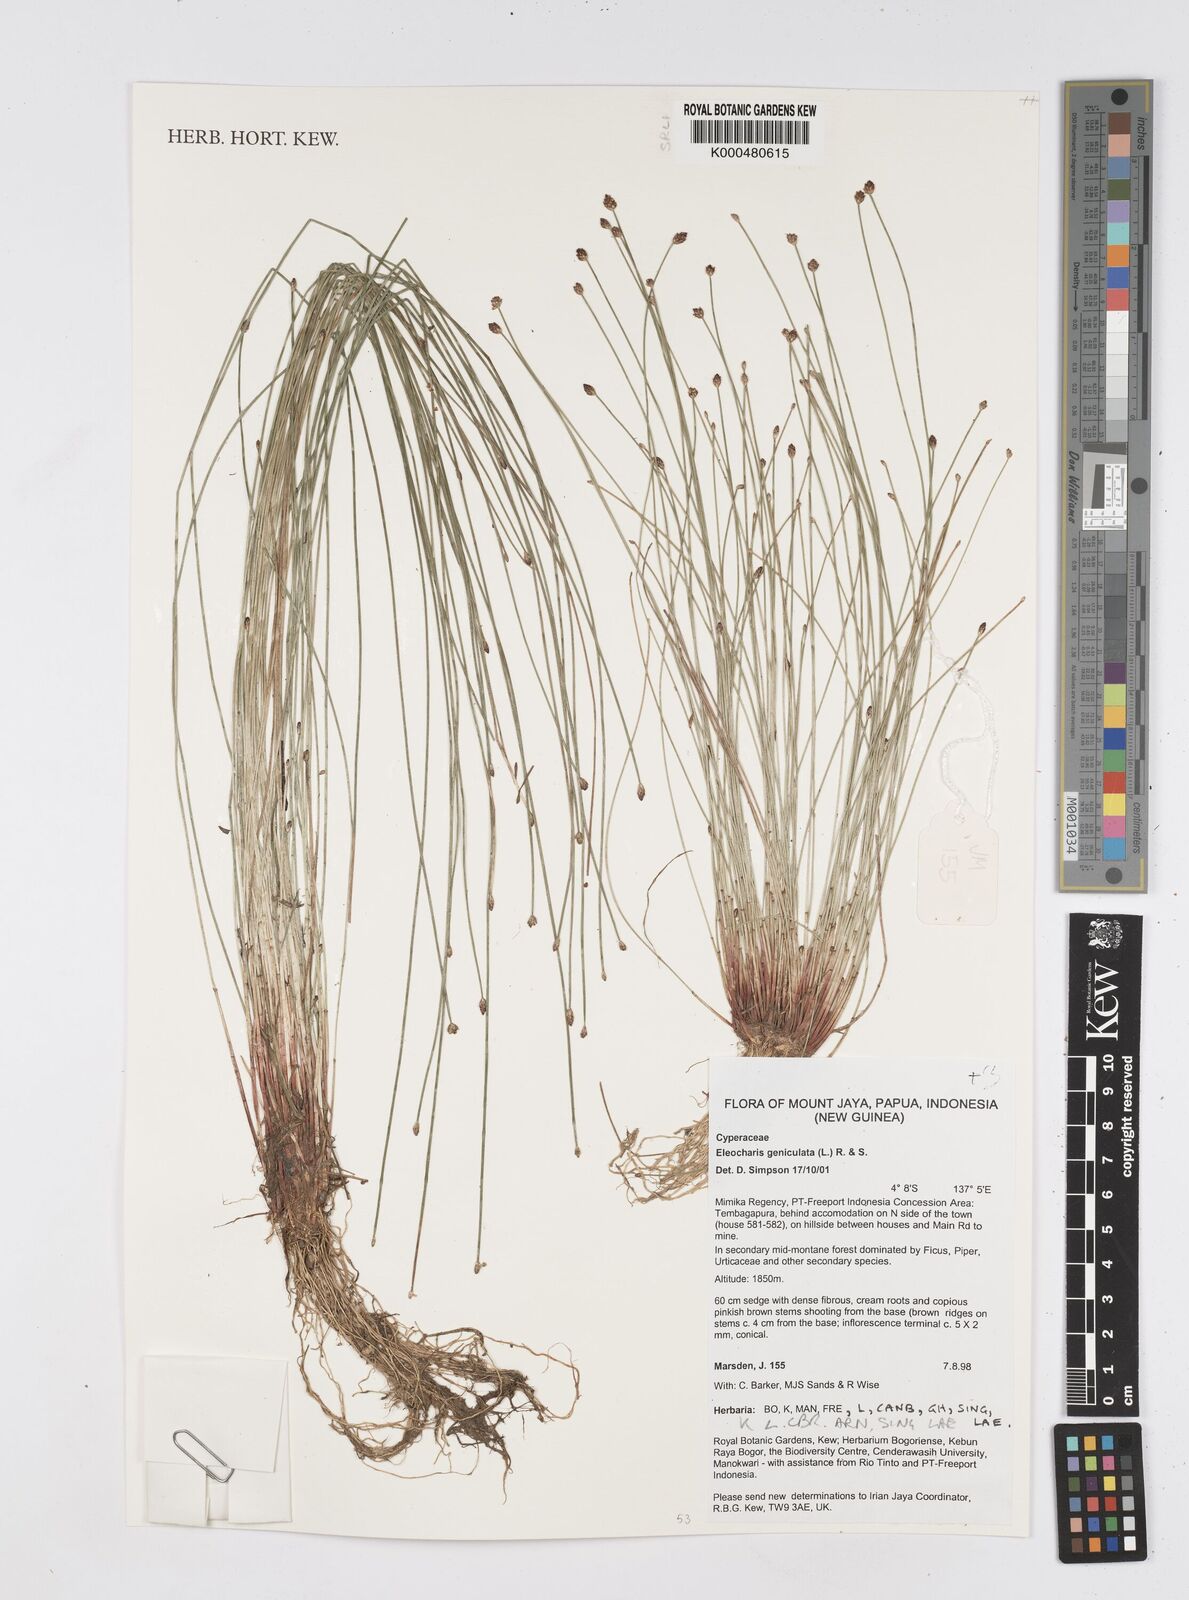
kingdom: Plantae
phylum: Tracheophyta
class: Liliopsida
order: Poales
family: Cyperaceae
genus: Eleocharis
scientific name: Eleocharis geniculata
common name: Canada spikesedge
